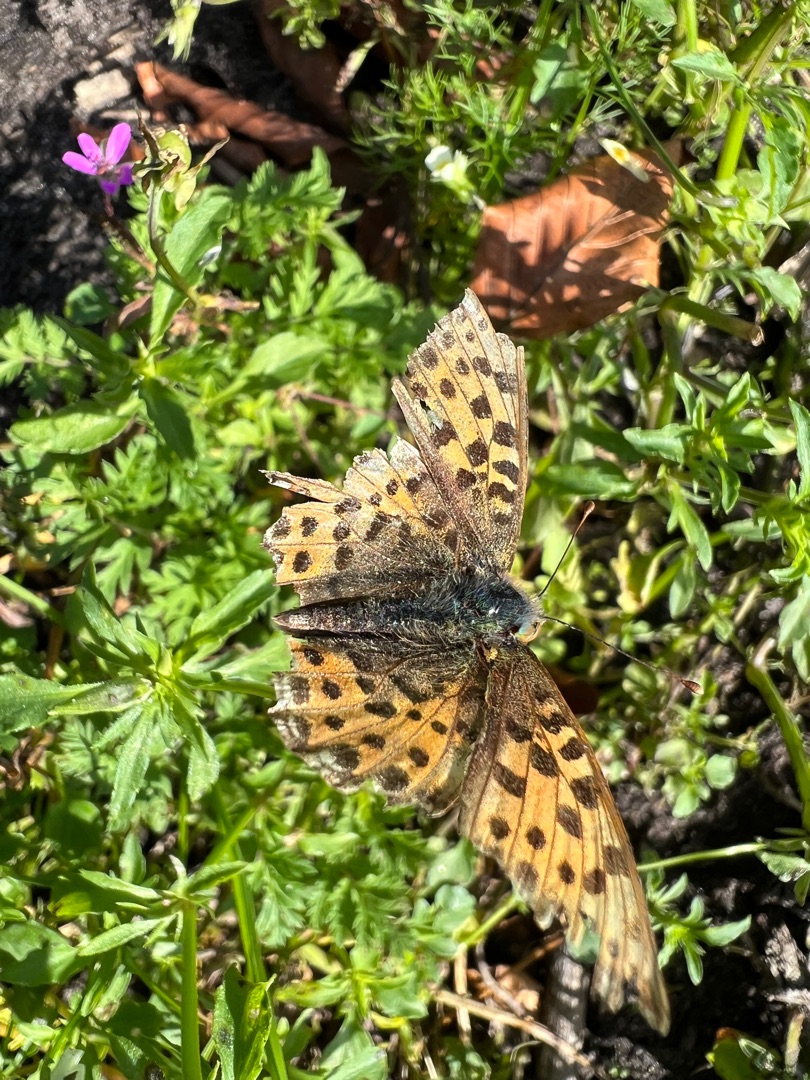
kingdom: Animalia
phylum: Arthropoda
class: Insecta
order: Lepidoptera
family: Nymphalidae
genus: Issoria
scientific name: Issoria lathonia
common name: Storplettet perlemorsommerfugl
